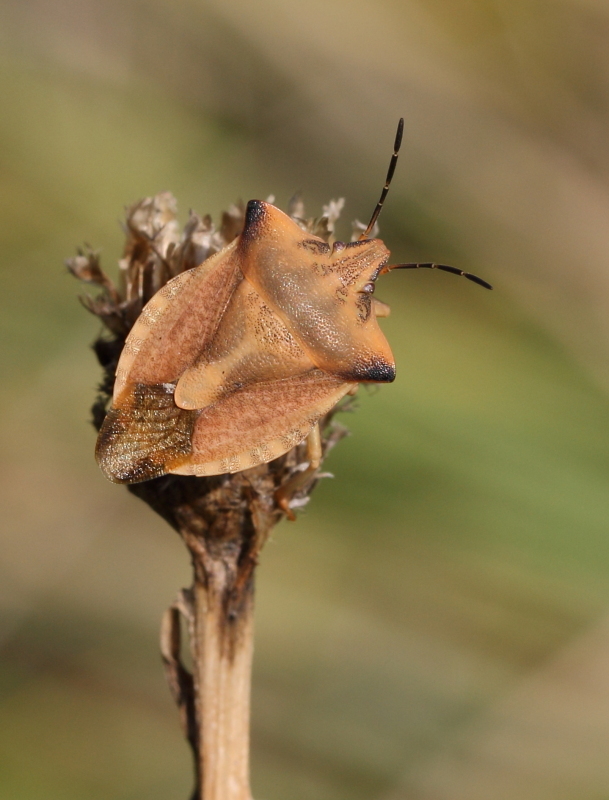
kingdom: Animalia
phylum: Arthropoda
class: Insecta
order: Hemiptera
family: Pentatomidae
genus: Carpocoris
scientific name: Carpocoris fuscispinus
